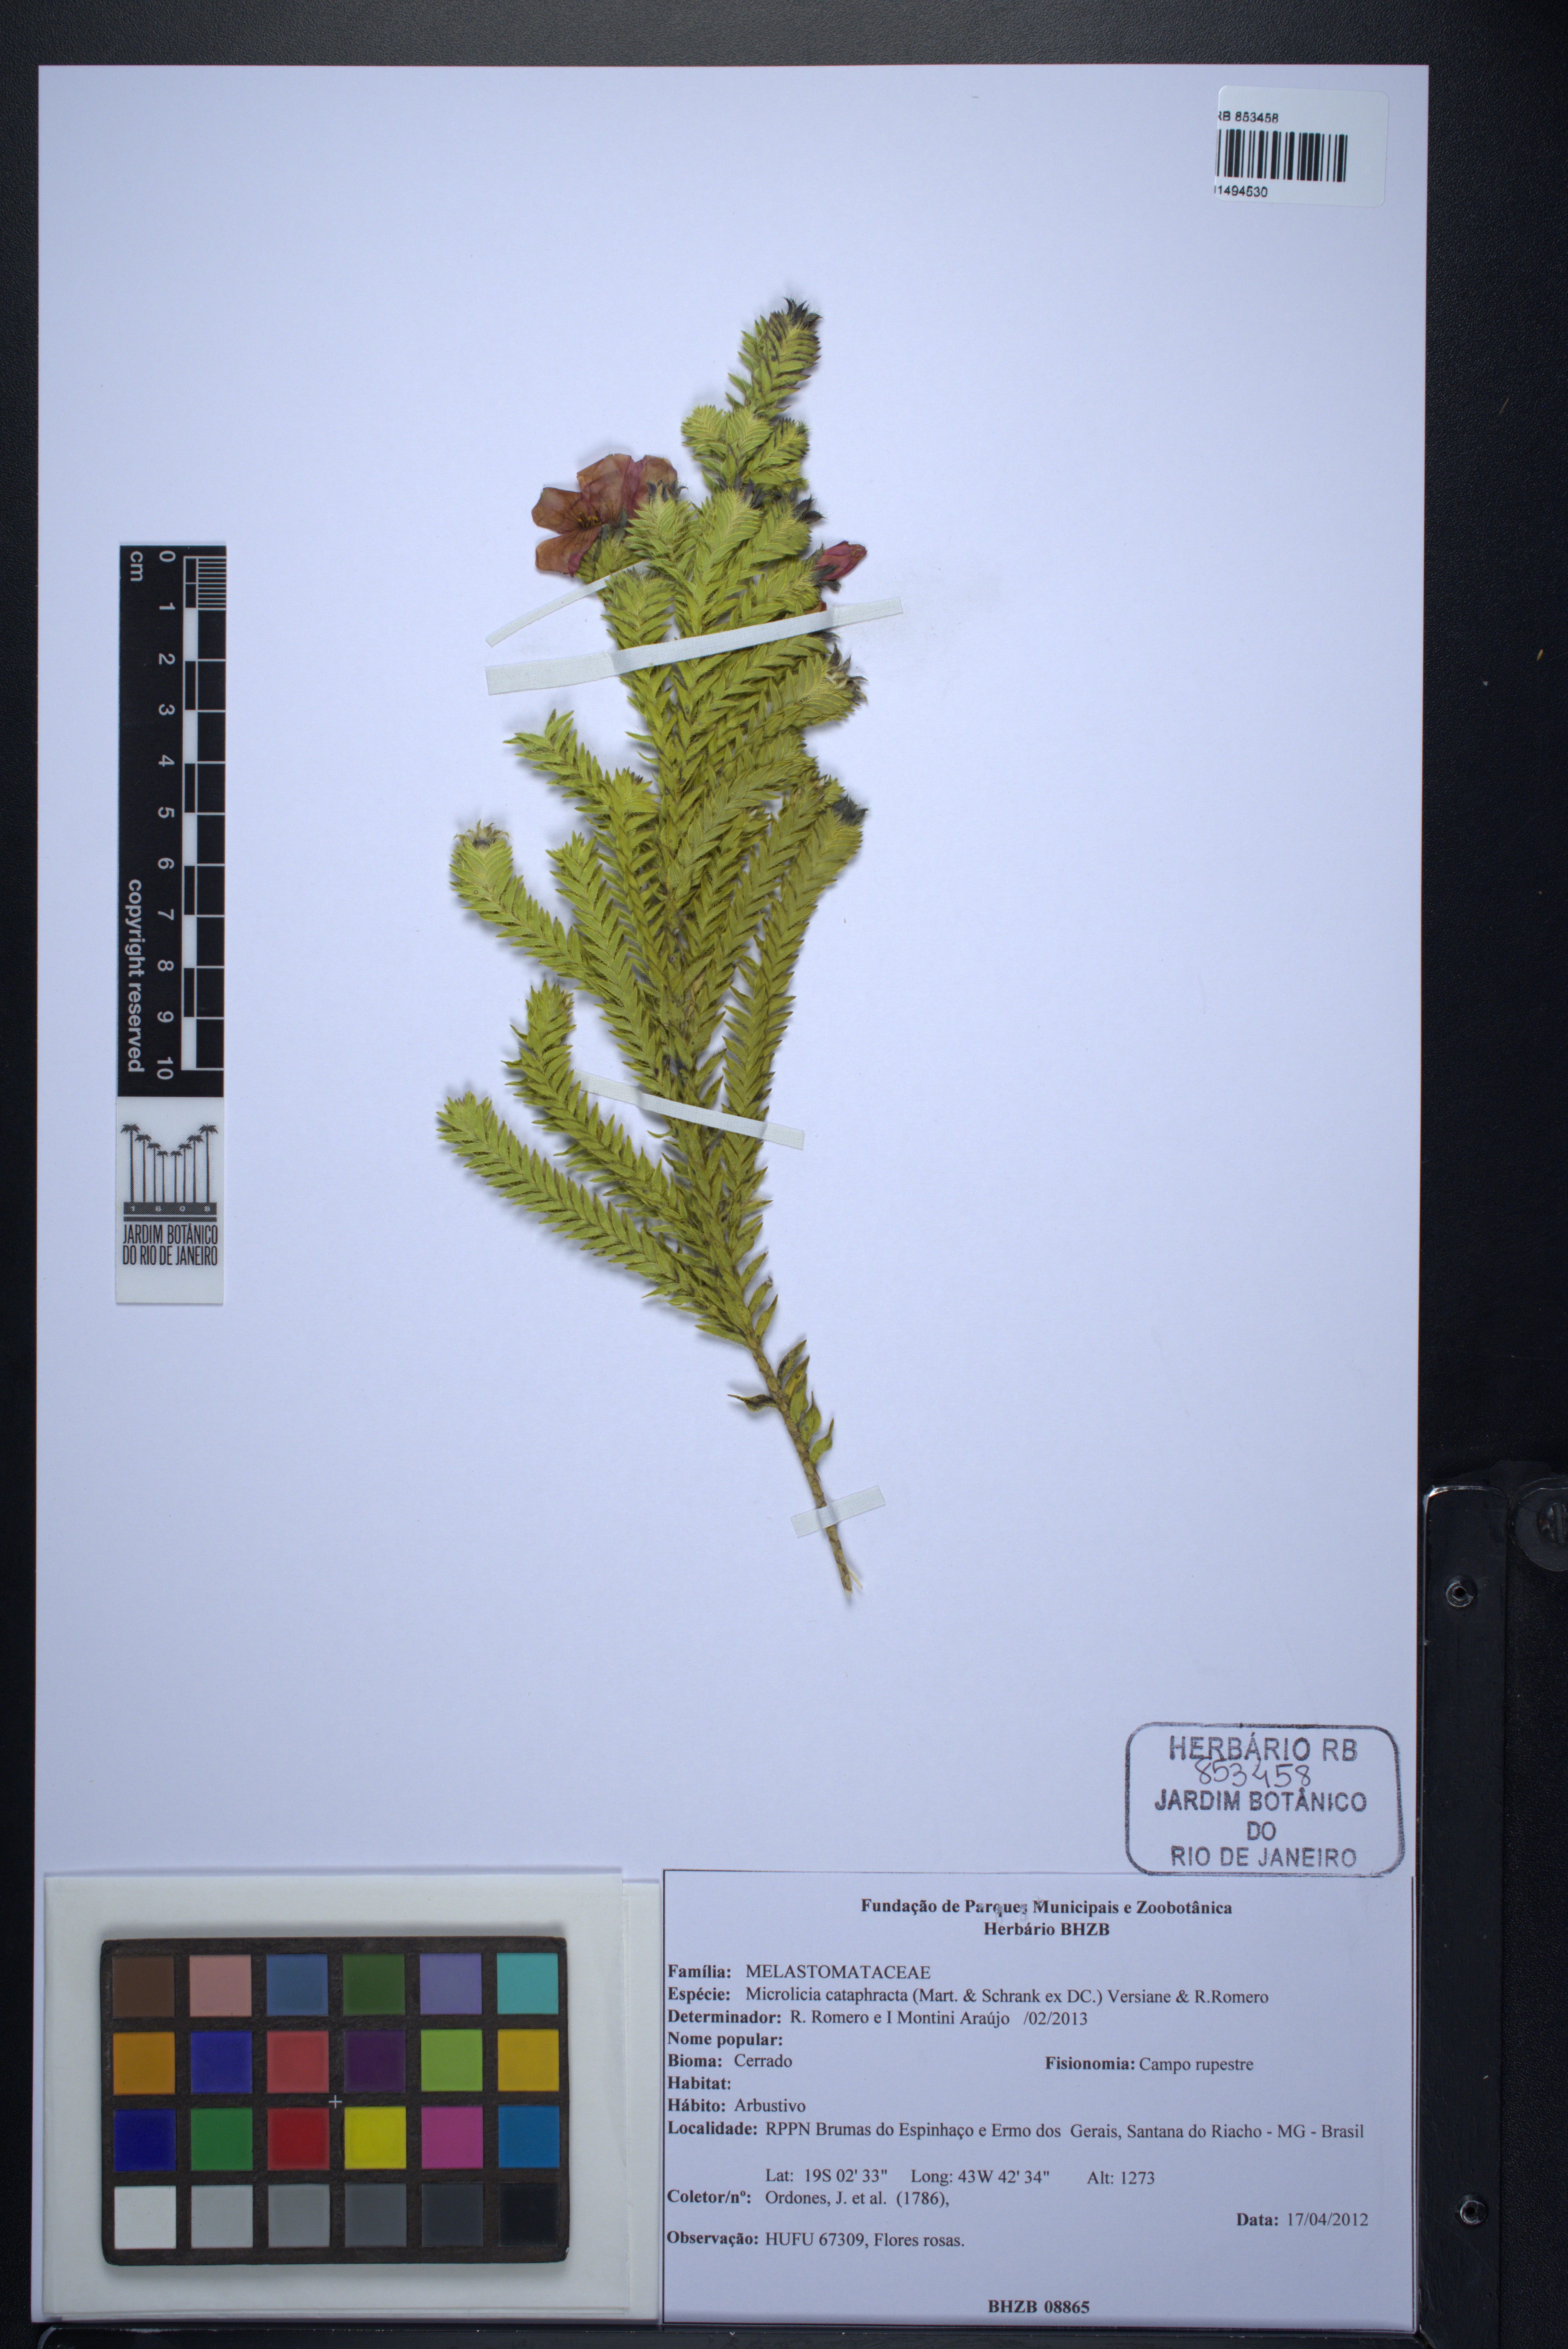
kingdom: Plantae
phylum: Tracheophyta
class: Magnoliopsida
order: Myrtales
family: Melastomataceae
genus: Microlicia
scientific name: Microlicia cataphracta
